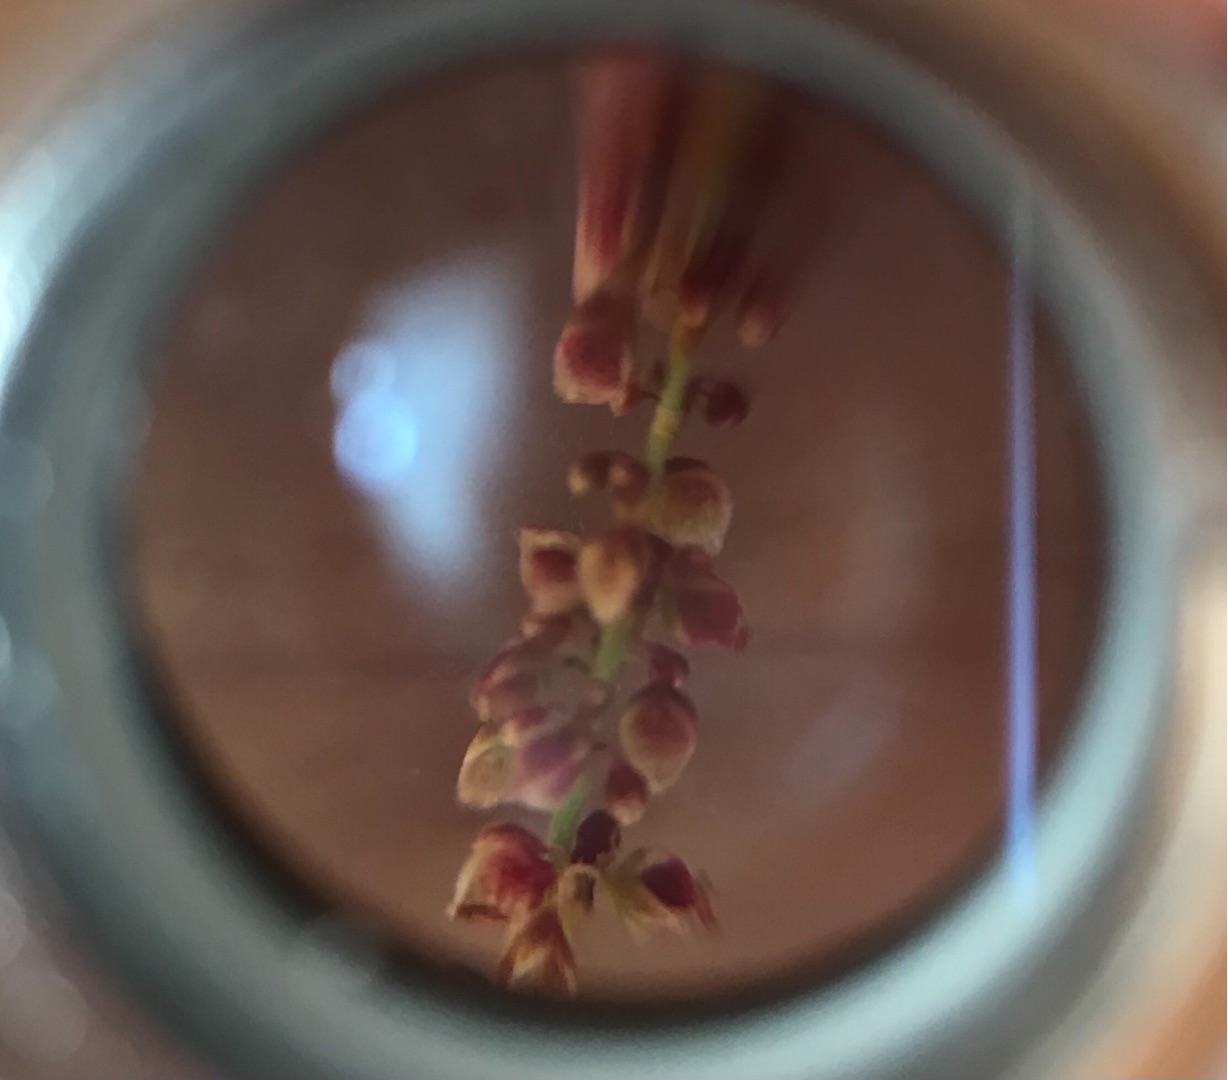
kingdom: Plantae
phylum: Tracheophyta
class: Magnoliopsida
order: Caryophyllales
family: Polygonaceae
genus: Rumex
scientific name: Rumex acetosella
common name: Rødknæ
